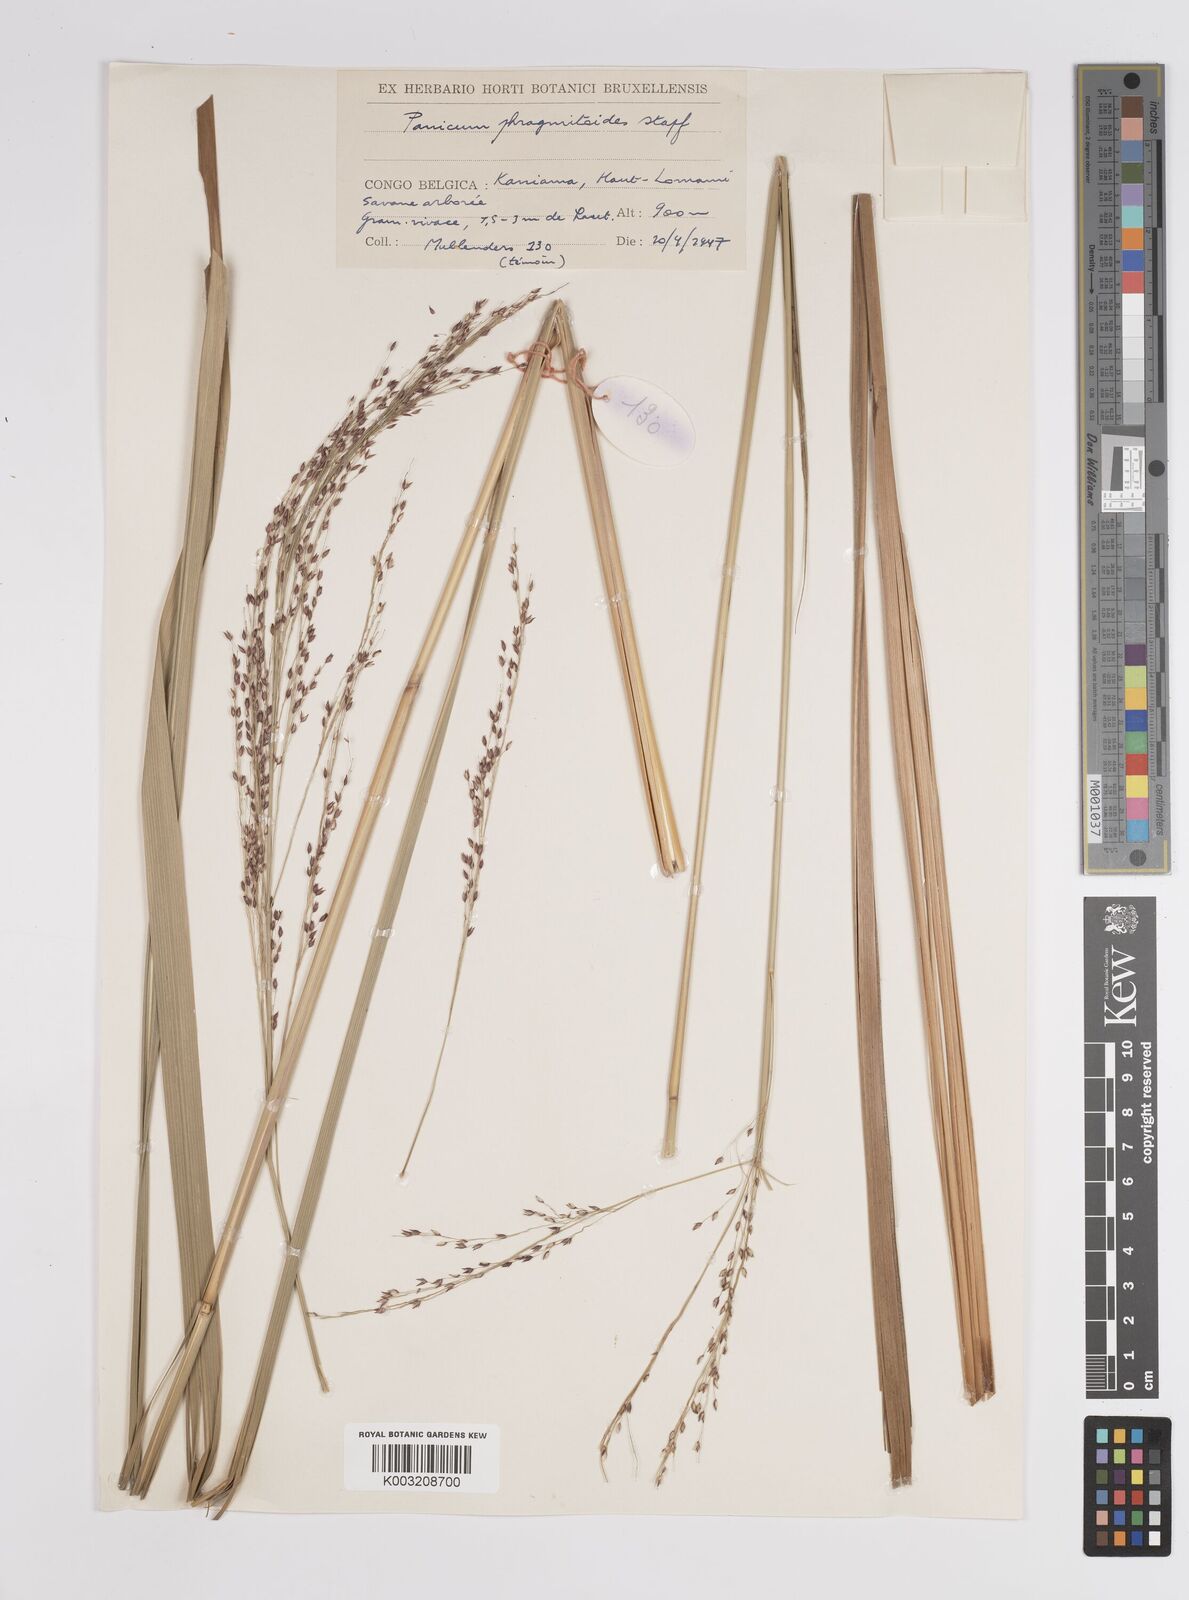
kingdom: Plantae
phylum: Tracheophyta
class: Liliopsida
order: Poales
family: Poaceae
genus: Panicum
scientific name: Panicum phragmitoides
